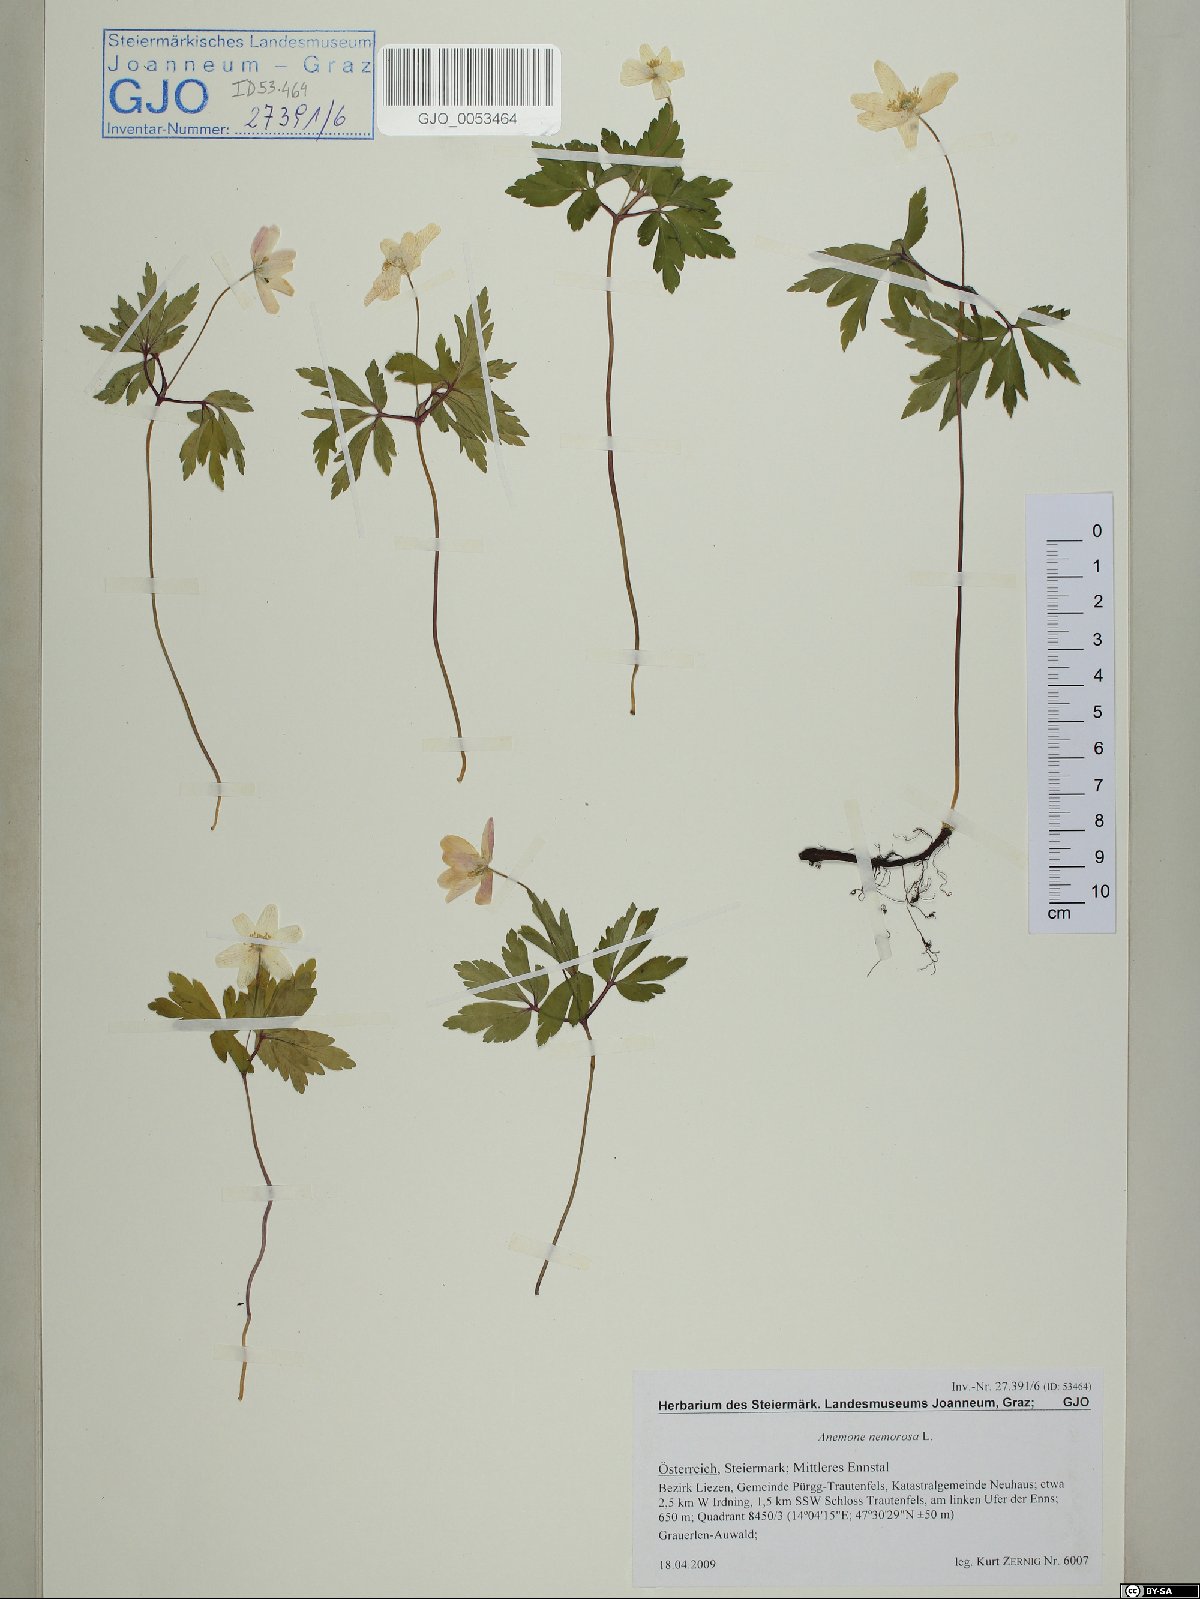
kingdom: Plantae
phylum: Tracheophyta
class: Magnoliopsida
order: Ranunculales
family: Ranunculaceae
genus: Anemone
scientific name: Anemone nemorosa
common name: Wood anemone
